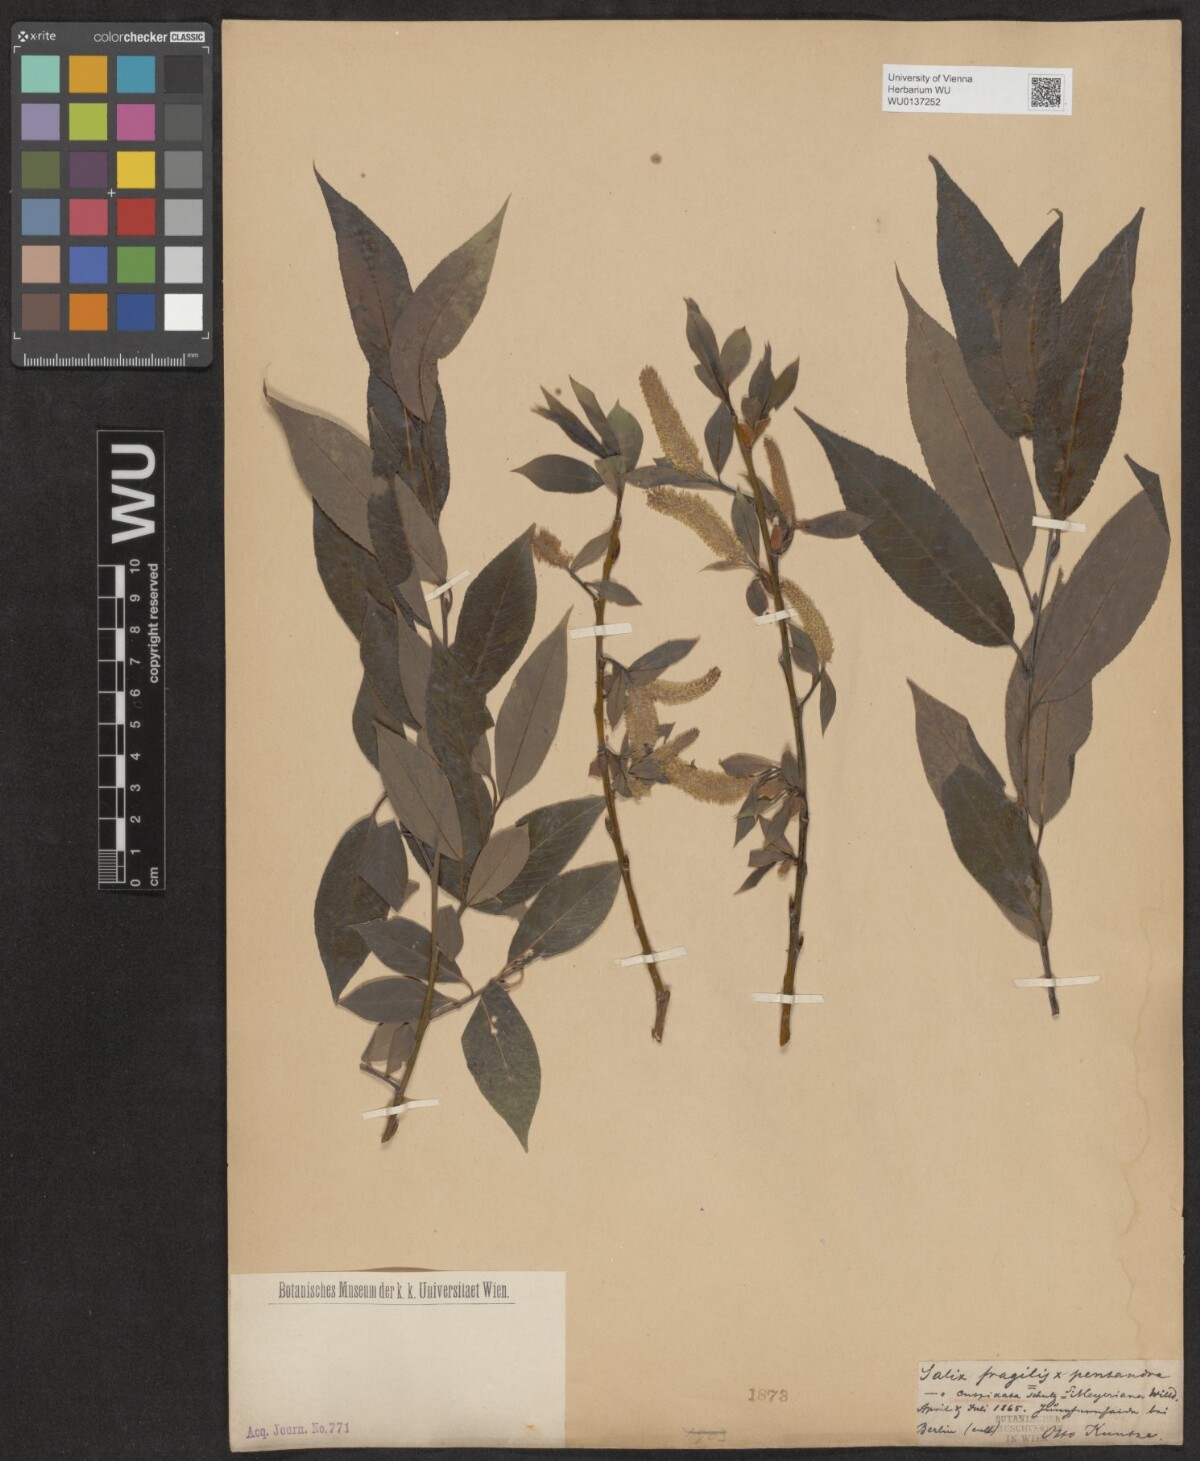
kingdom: Plantae
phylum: Tracheophyta
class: Magnoliopsida
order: Malpighiales
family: Salicaceae
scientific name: Salicaceae
